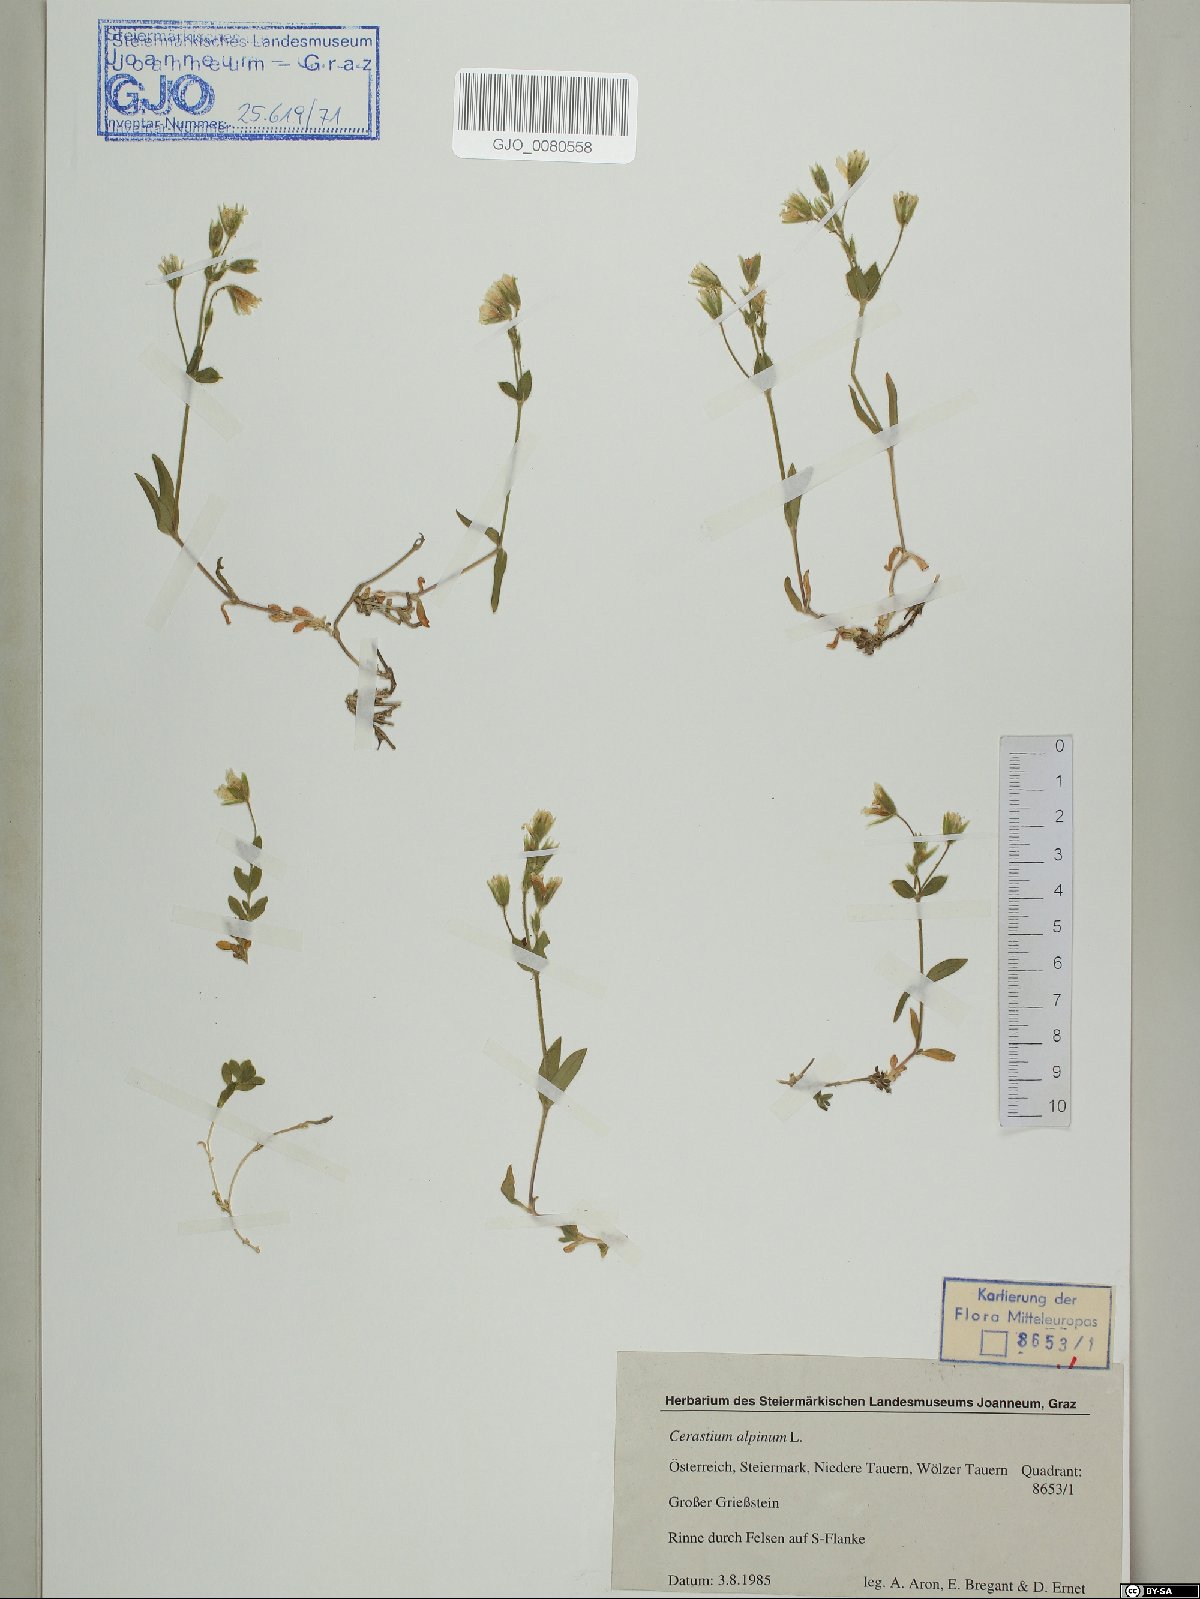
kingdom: Plantae
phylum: Tracheophyta
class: Magnoliopsida
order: Caryophyllales
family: Caryophyllaceae
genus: Cerastium
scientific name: Cerastium alpinum
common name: Alpine mouse-ear
